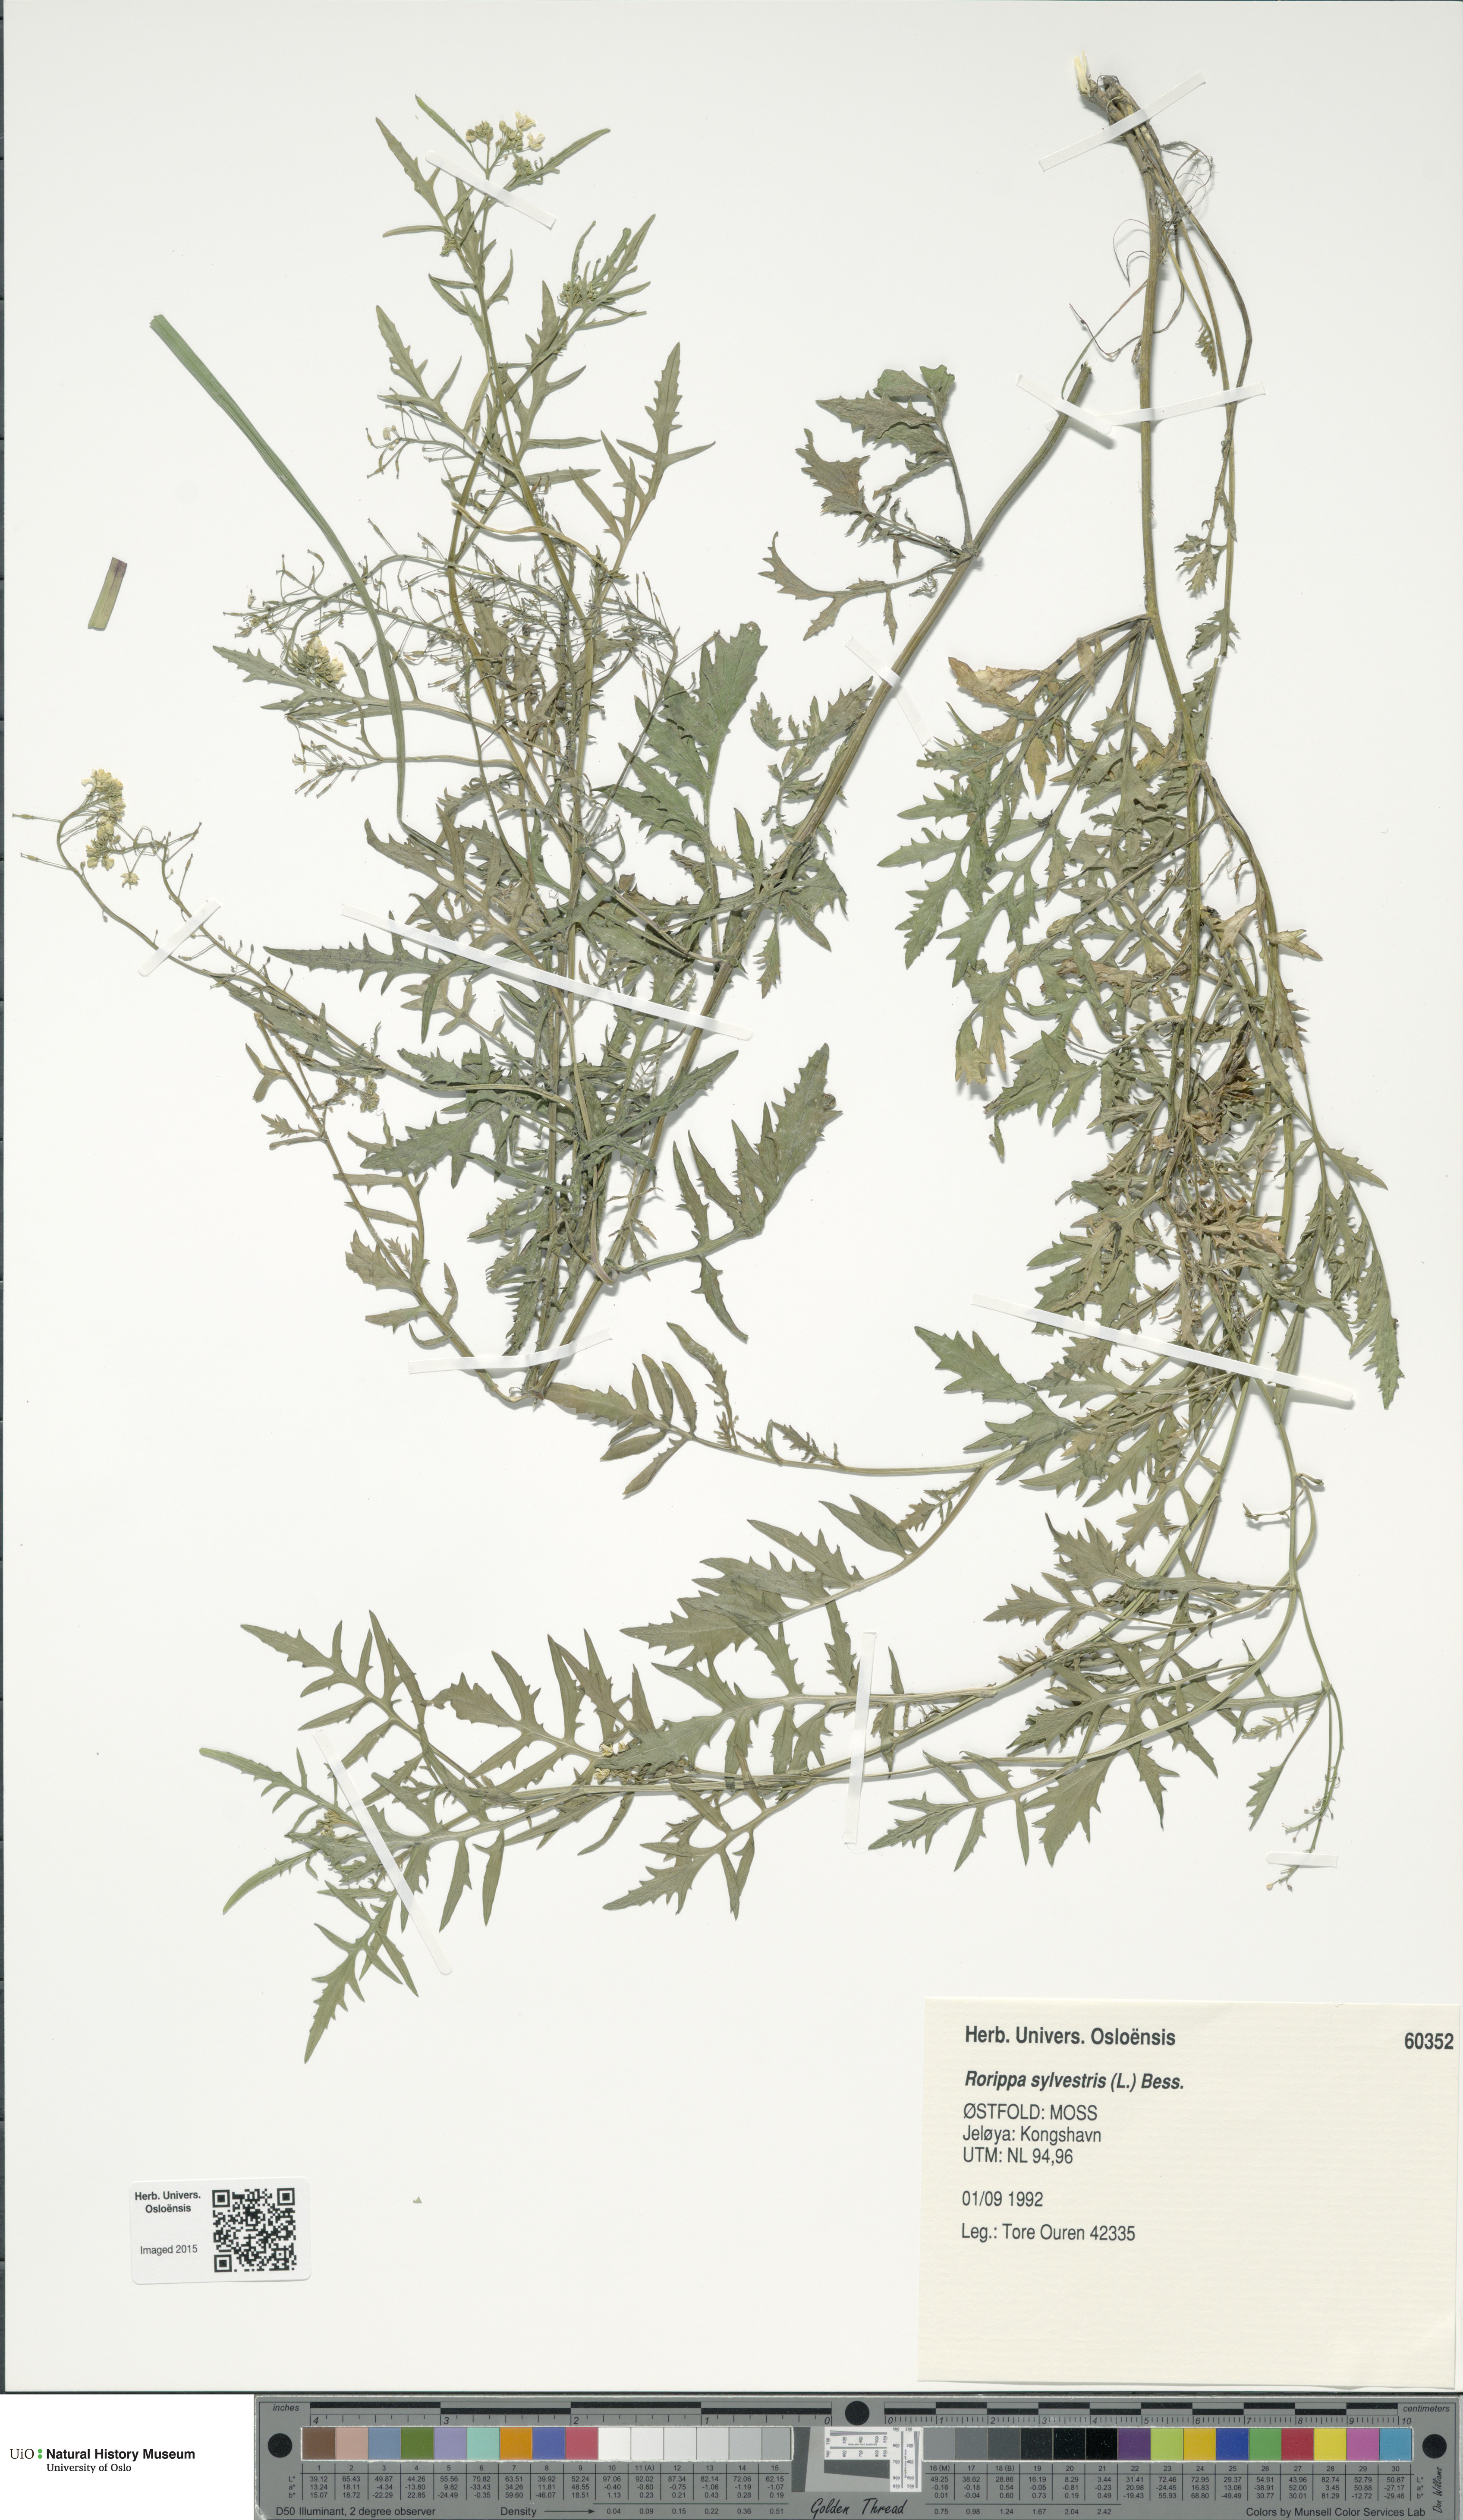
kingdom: Plantae
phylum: Tracheophyta
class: Magnoliopsida
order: Brassicales
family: Brassicaceae
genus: Rorippa
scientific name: Rorippa sylvestris
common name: Creeping yellowcress
